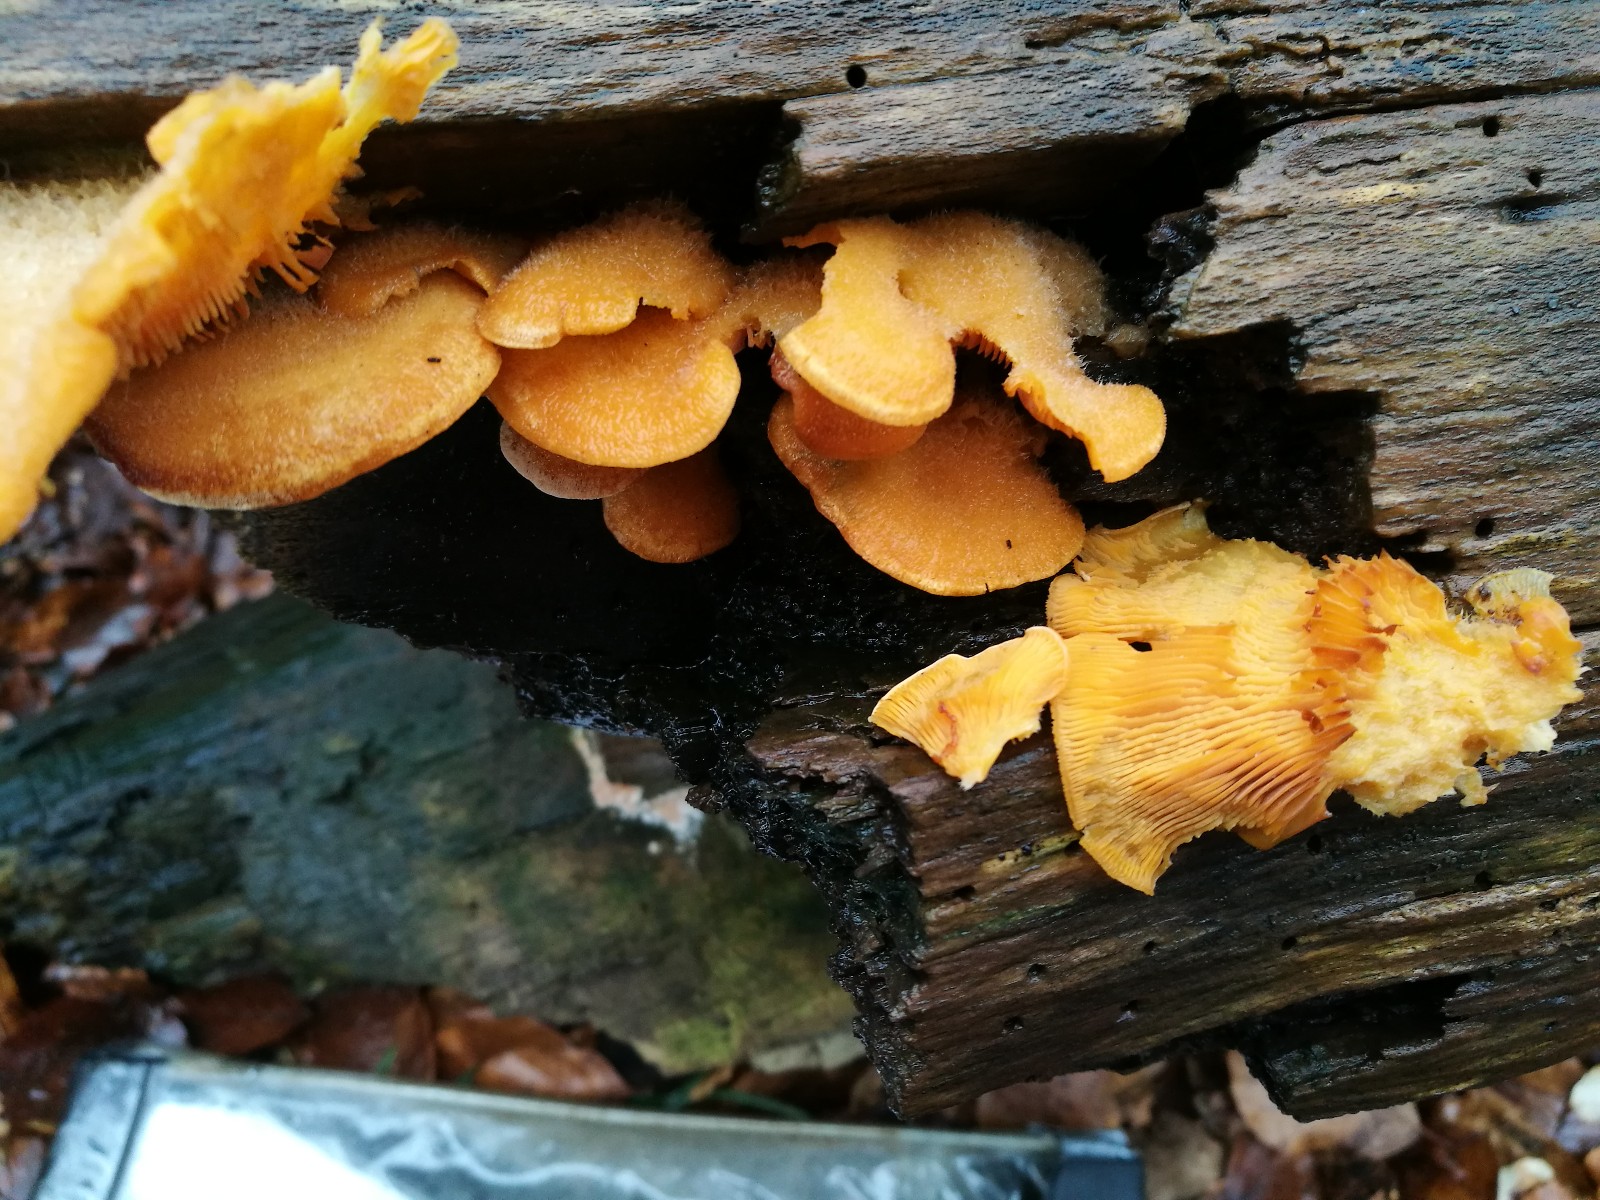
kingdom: Fungi
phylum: Basidiomycota
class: Agaricomycetes
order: Agaricales
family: Phyllotopsidaceae
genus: Phyllotopsis
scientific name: Phyllotopsis nidulans
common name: okkerblad
